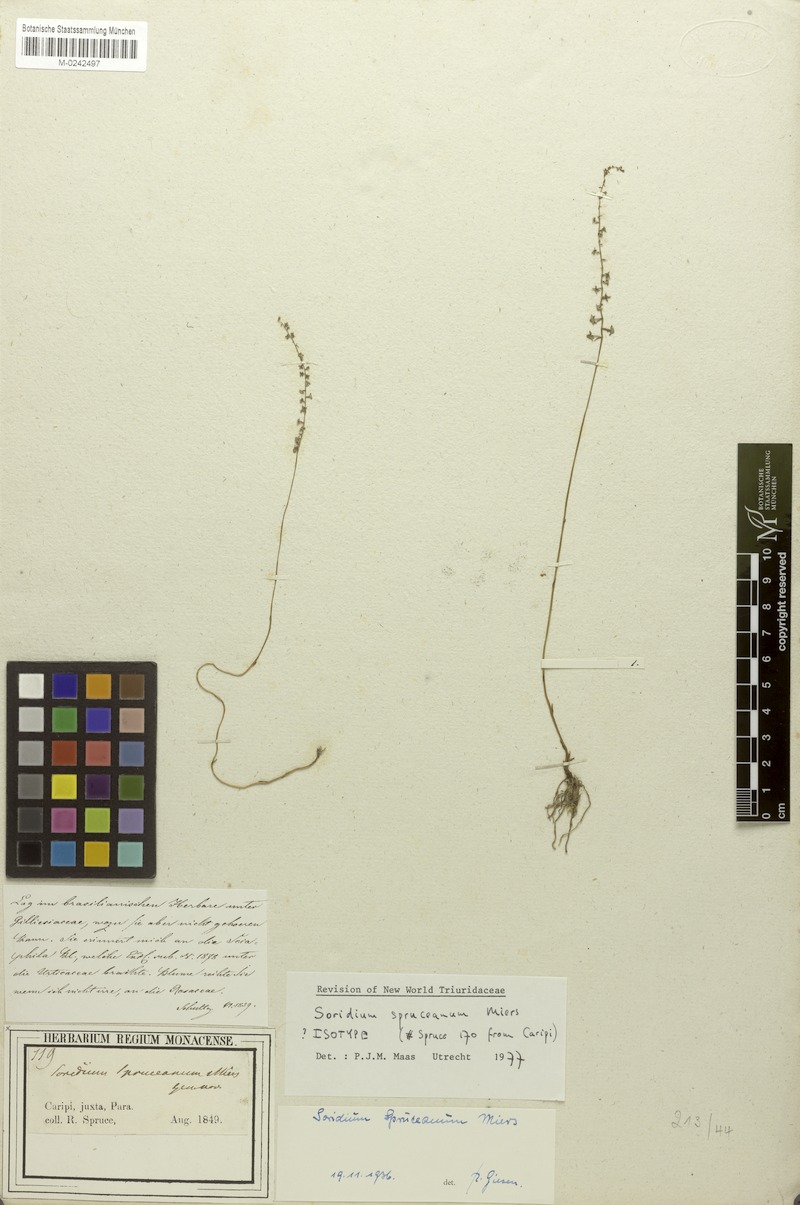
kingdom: Plantae
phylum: Tracheophyta
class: Liliopsida
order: Pandanales
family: Triuridaceae
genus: Soridium
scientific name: Soridium spruceanum
